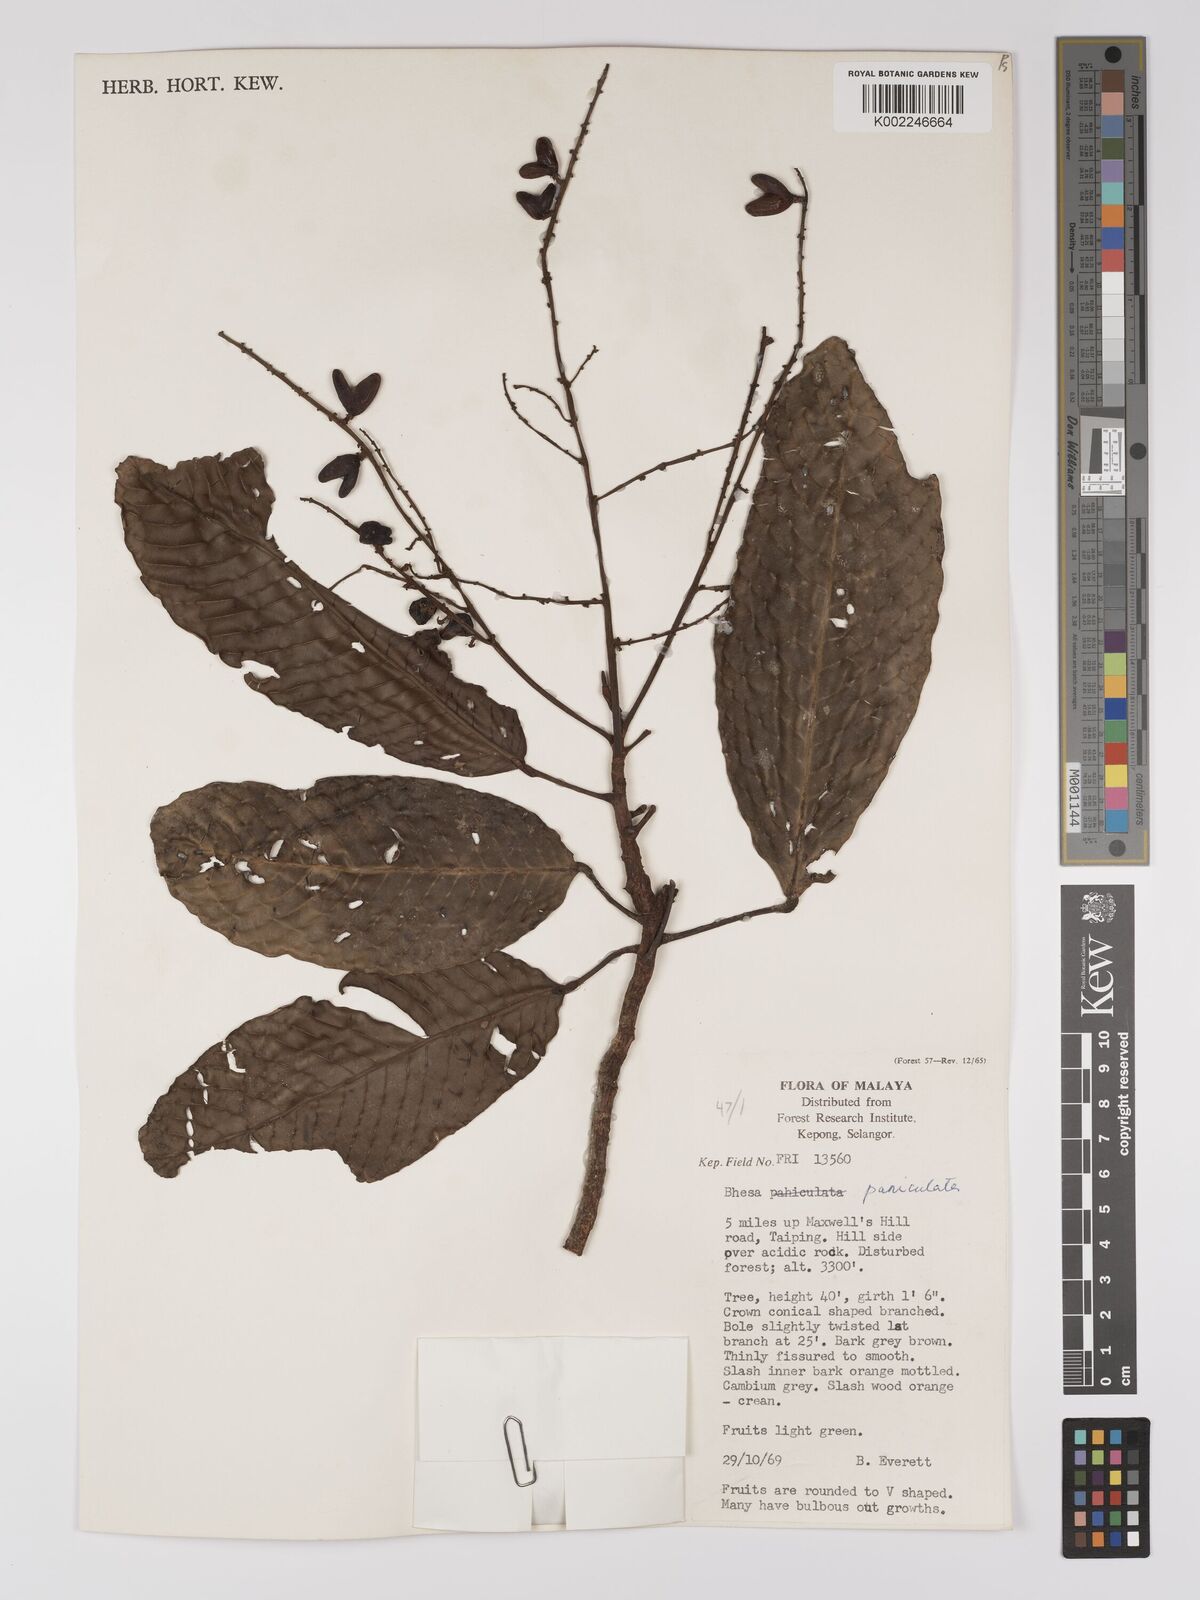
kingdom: Plantae
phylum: Tracheophyta
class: Magnoliopsida
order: Malpighiales
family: Centroplacaceae
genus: Bhesa
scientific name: Bhesa paniculata
